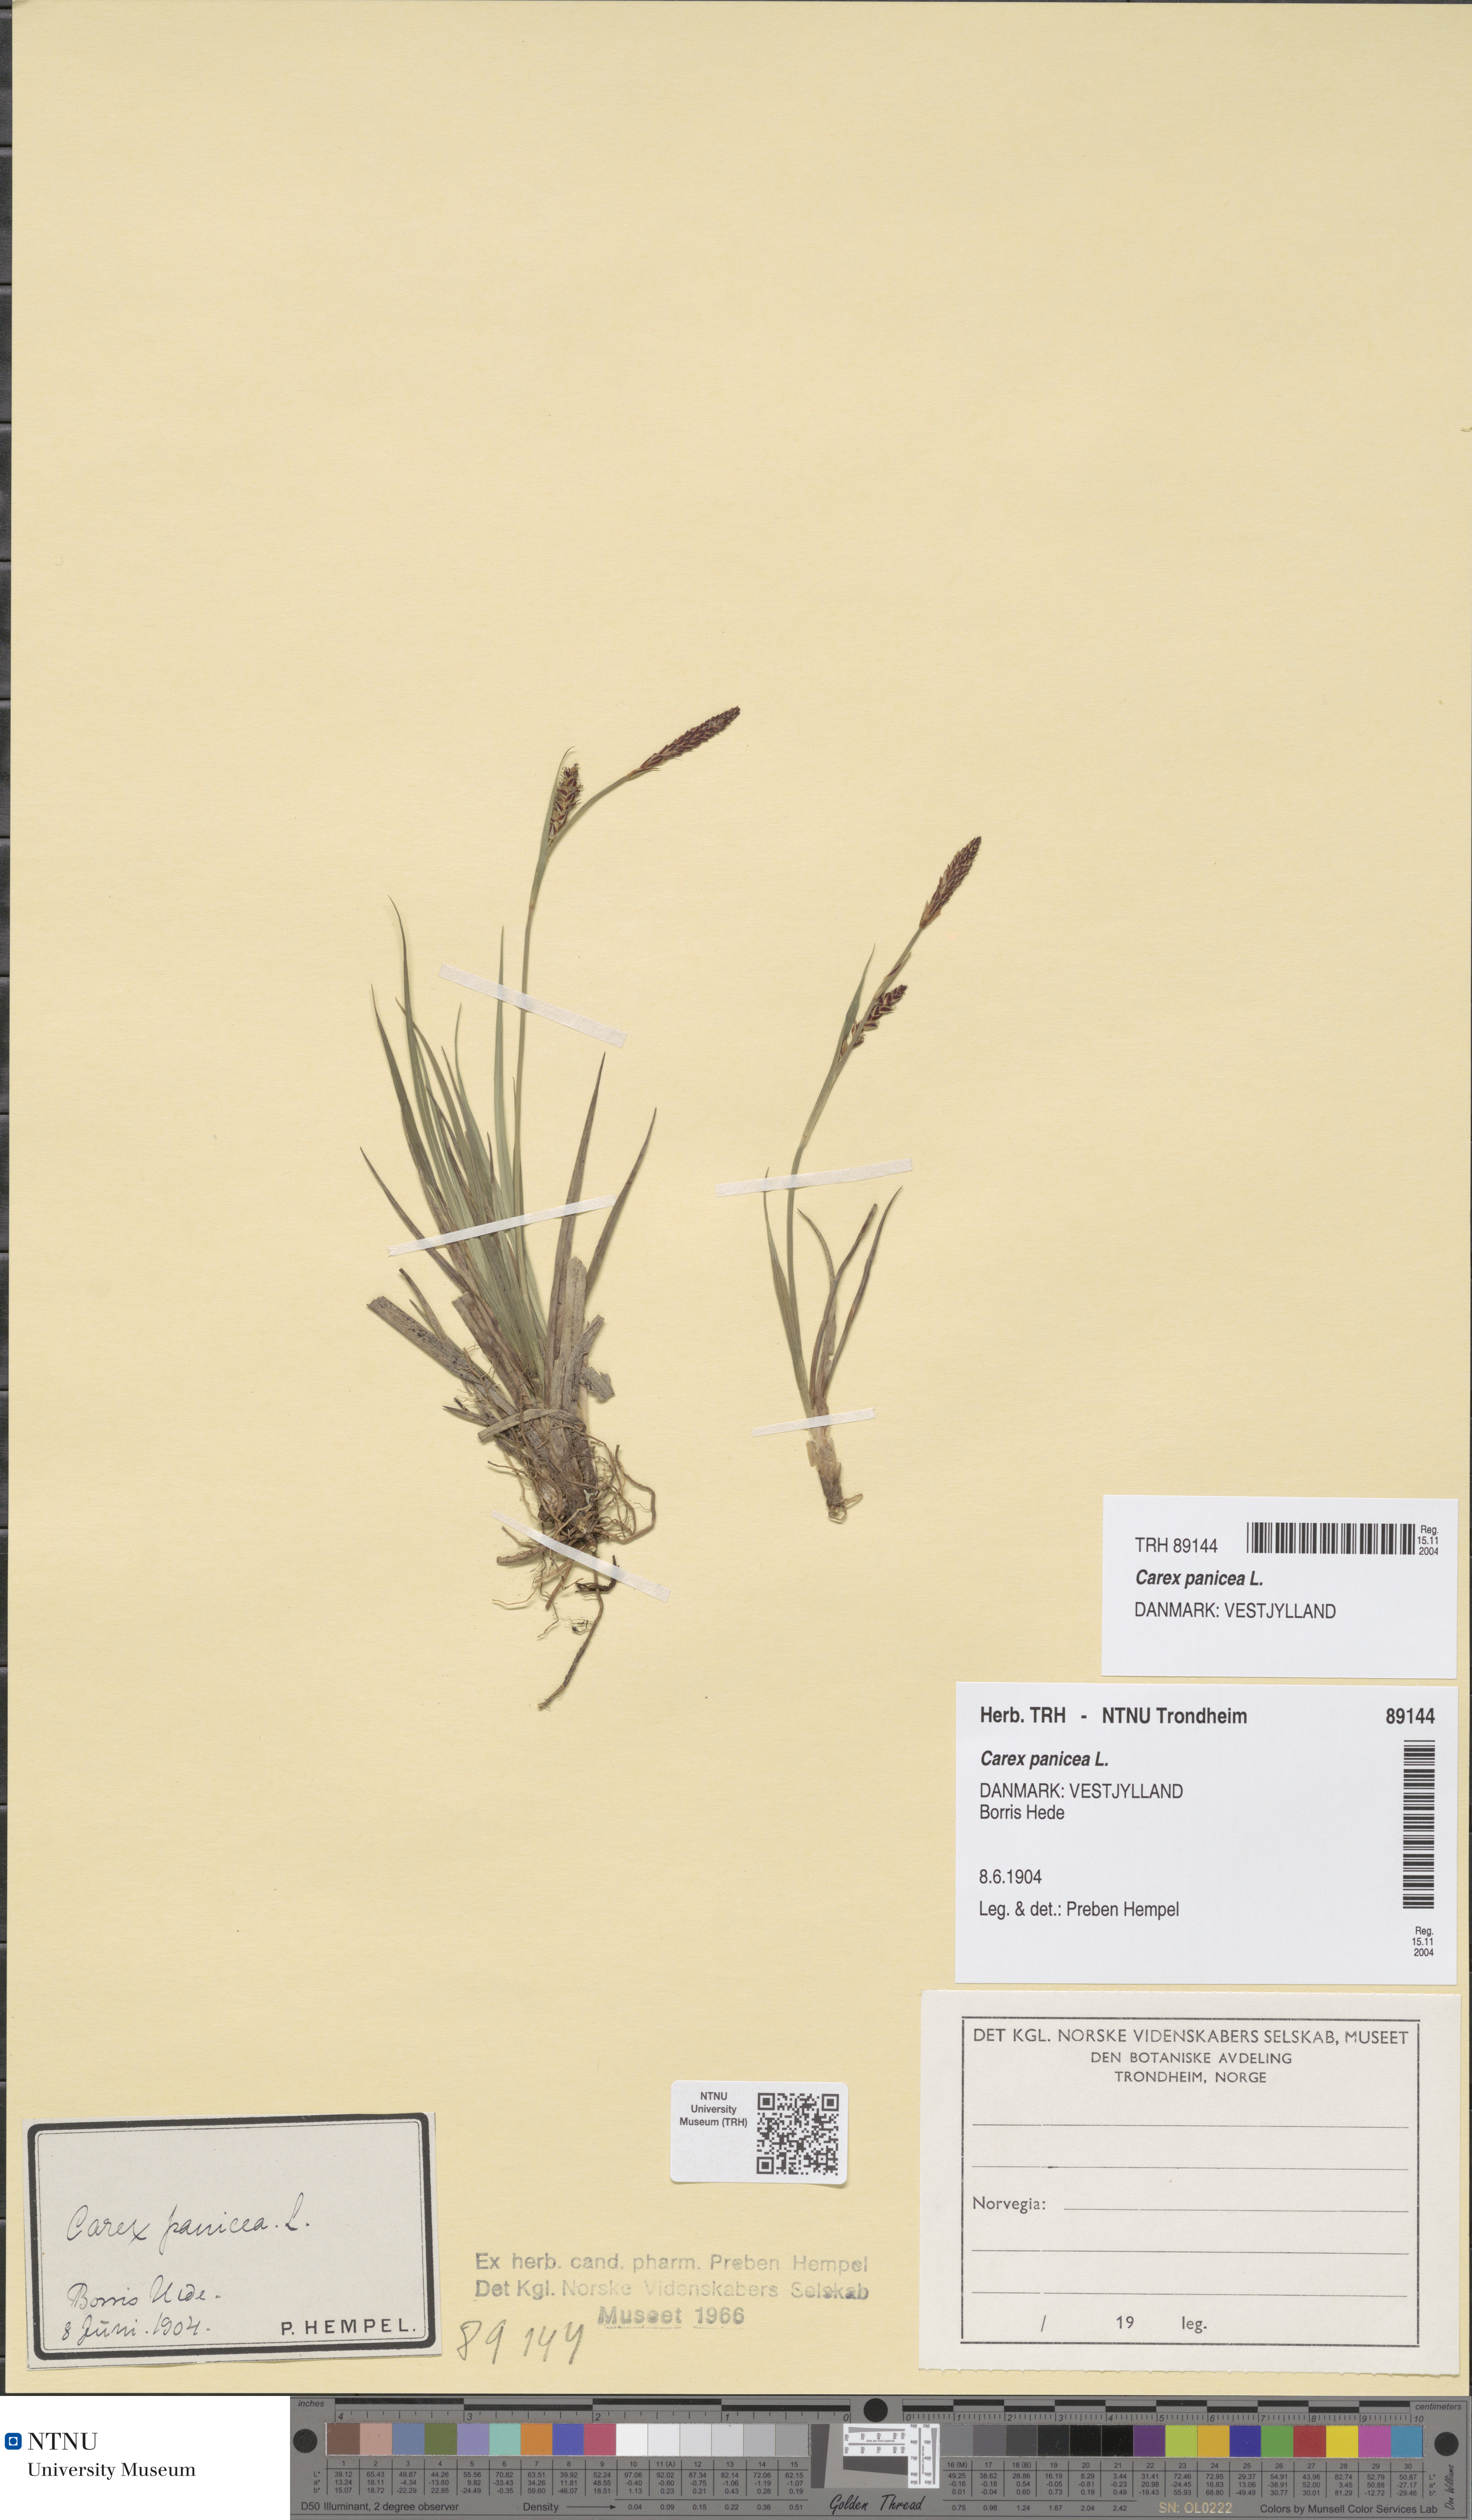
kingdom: Plantae
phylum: Tracheophyta
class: Liliopsida
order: Poales
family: Cyperaceae
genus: Carex
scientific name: Carex panicea
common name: Carnation sedge
